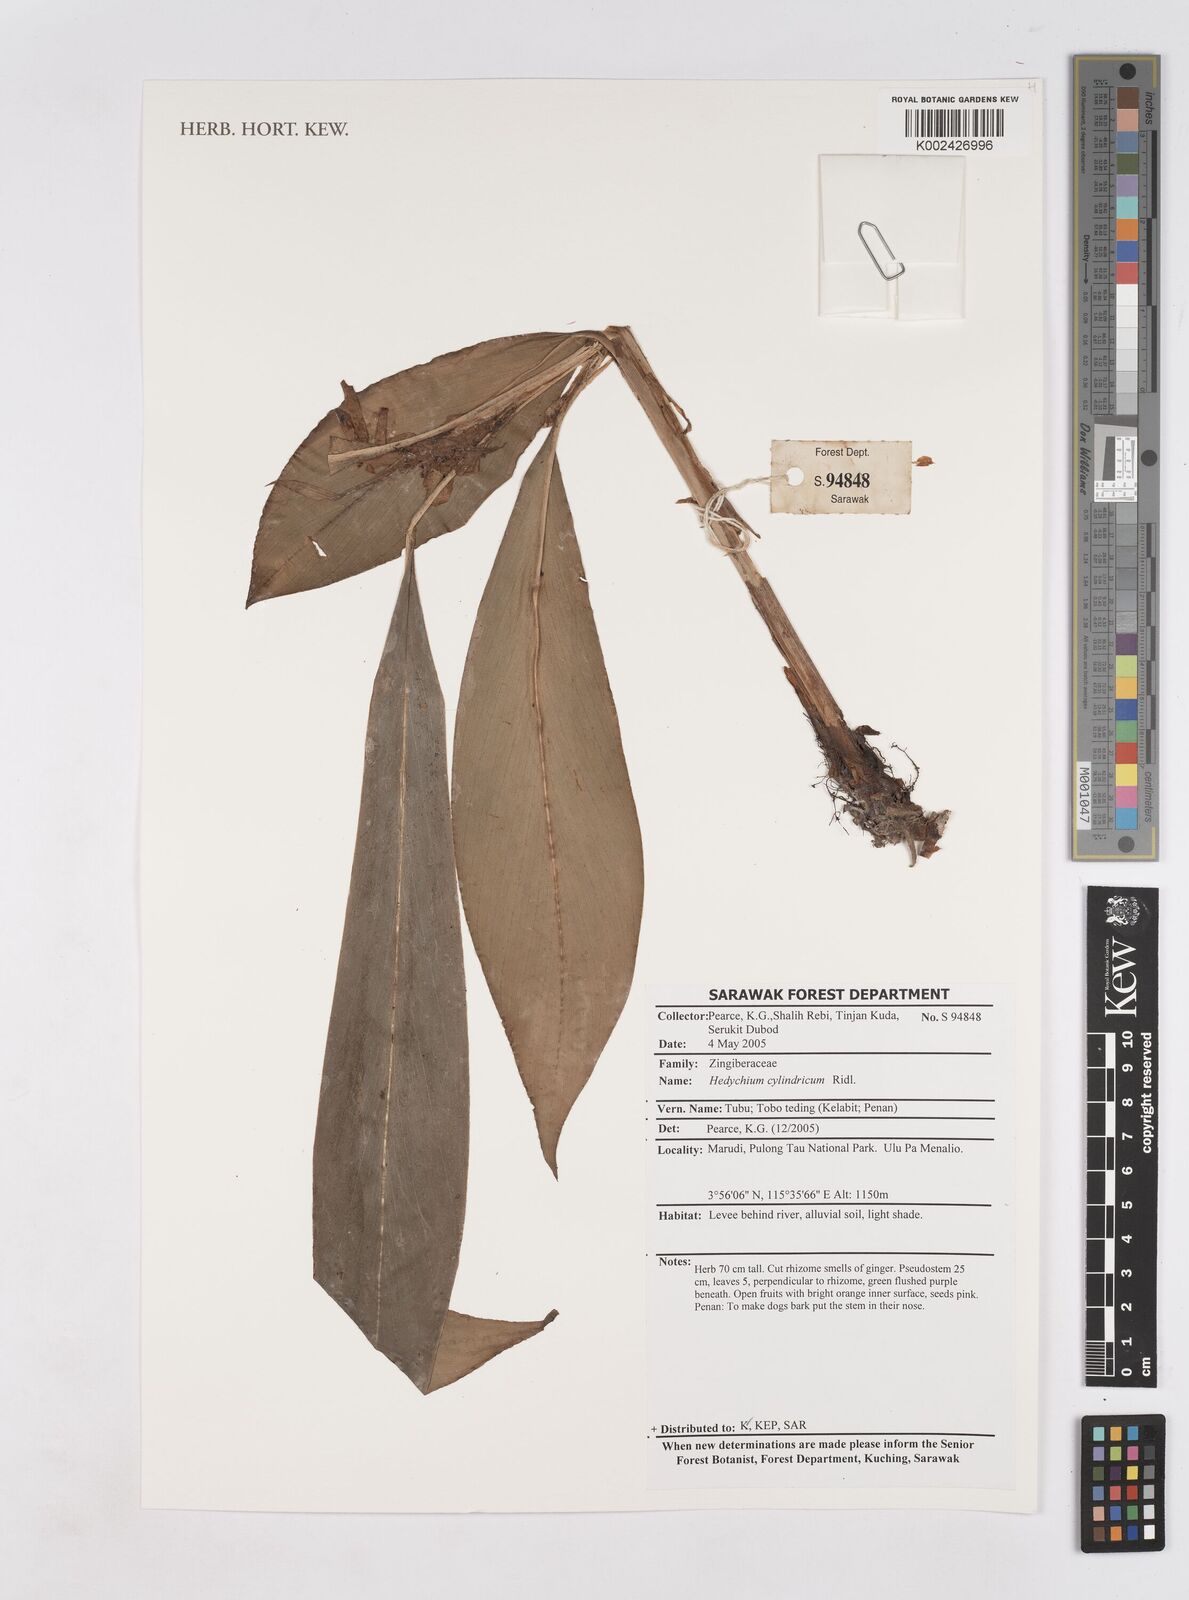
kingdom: Plantae
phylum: Tracheophyta
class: Liliopsida
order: Zingiberales
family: Zingiberaceae
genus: Hedychium
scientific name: Hedychium cylindricum
